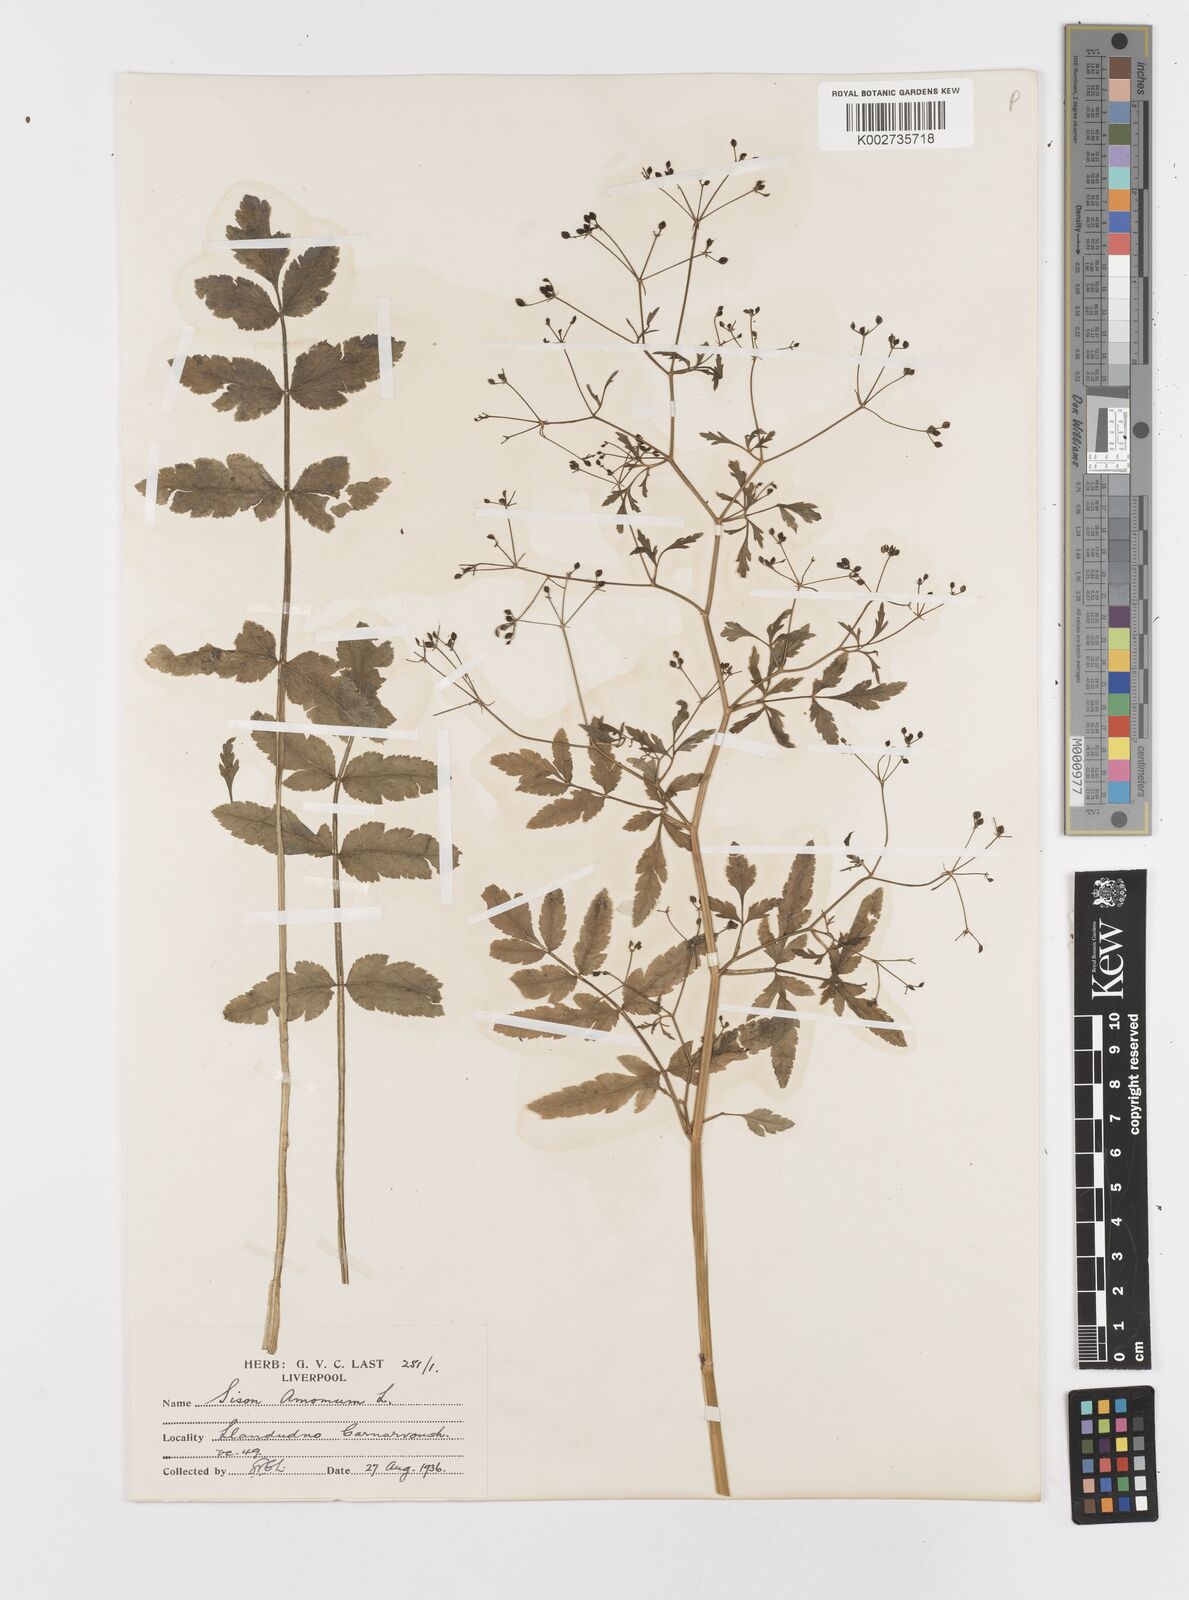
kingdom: Plantae
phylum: Tracheophyta
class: Magnoliopsida
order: Apiales
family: Apiaceae
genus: Sison
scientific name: Sison amomum
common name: Stone-parsley
